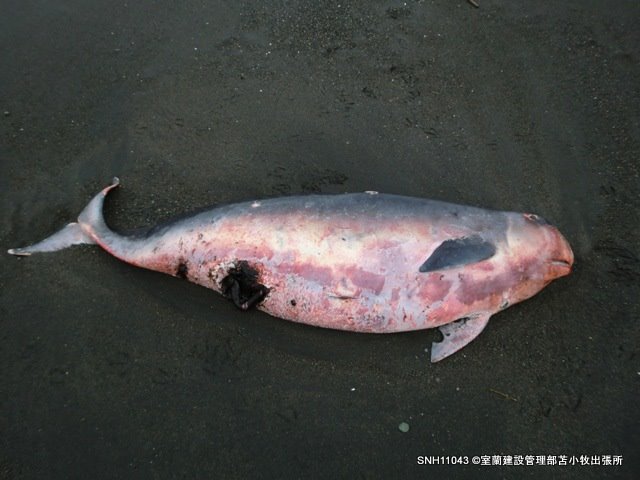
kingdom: Animalia
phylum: Chordata
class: Mammalia
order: Cetacea
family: Kogiidae
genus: Kogia
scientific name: Kogia breviceps
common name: Pygmy sperm whale
